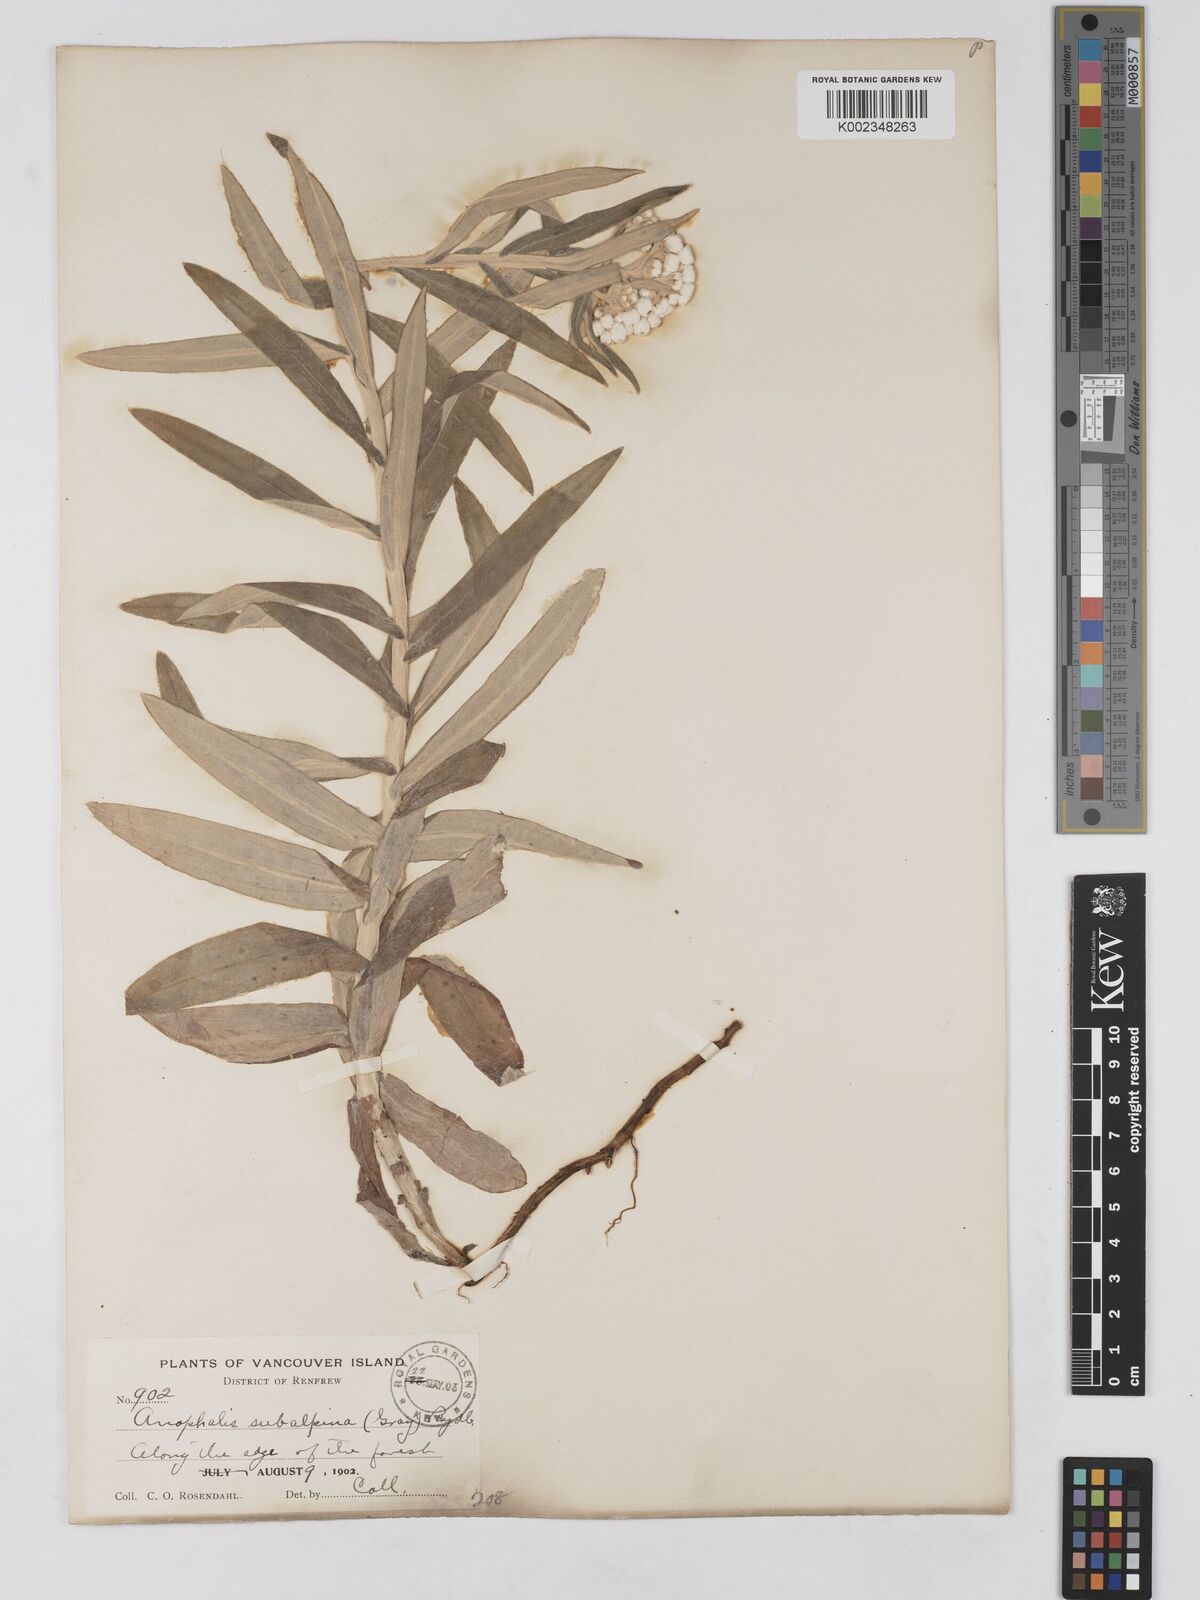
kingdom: Plantae
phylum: Tracheophyta
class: Magnoliopsida
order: Asterales
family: Asteraceae
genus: Anaphalis
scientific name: Anaphalis margaritacea
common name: Pearly everlasting
